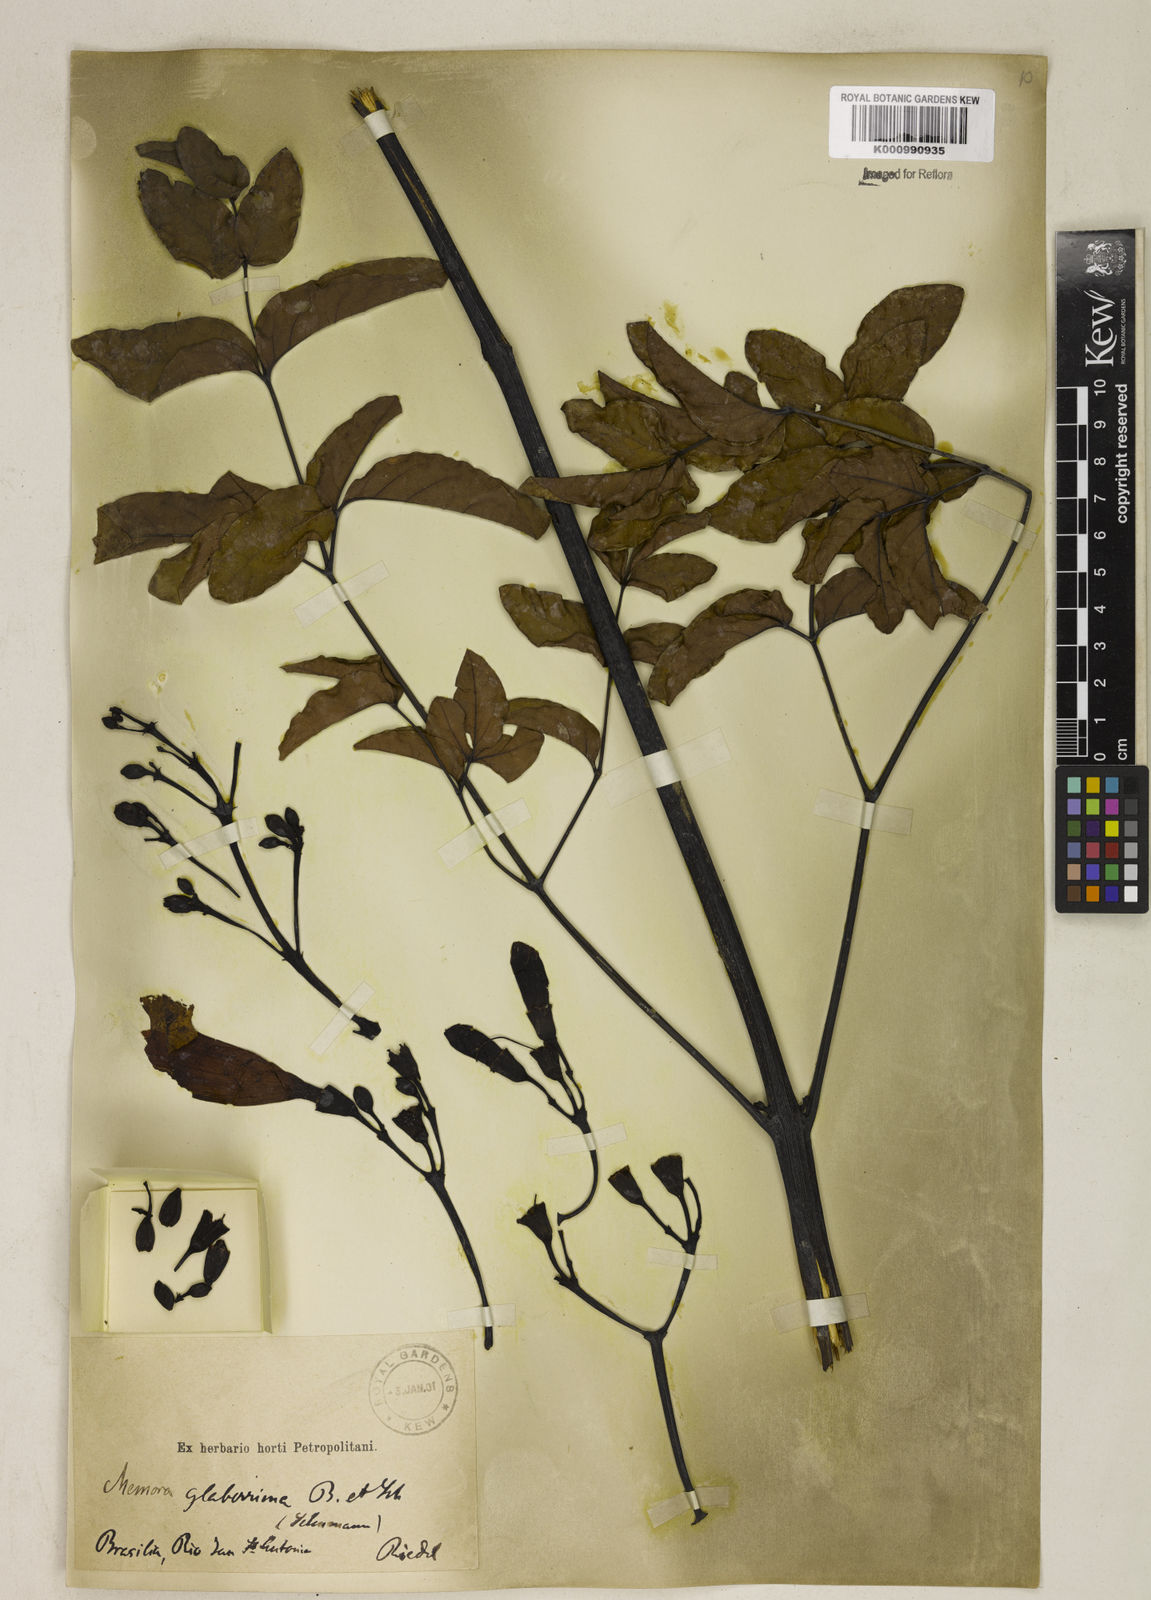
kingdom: Plantae
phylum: Tracheophyta
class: Magnoliopsida
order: Lamiales
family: Bignoniaceae
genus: Adenocalymma
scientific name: Adenocalymma pedunculatum
